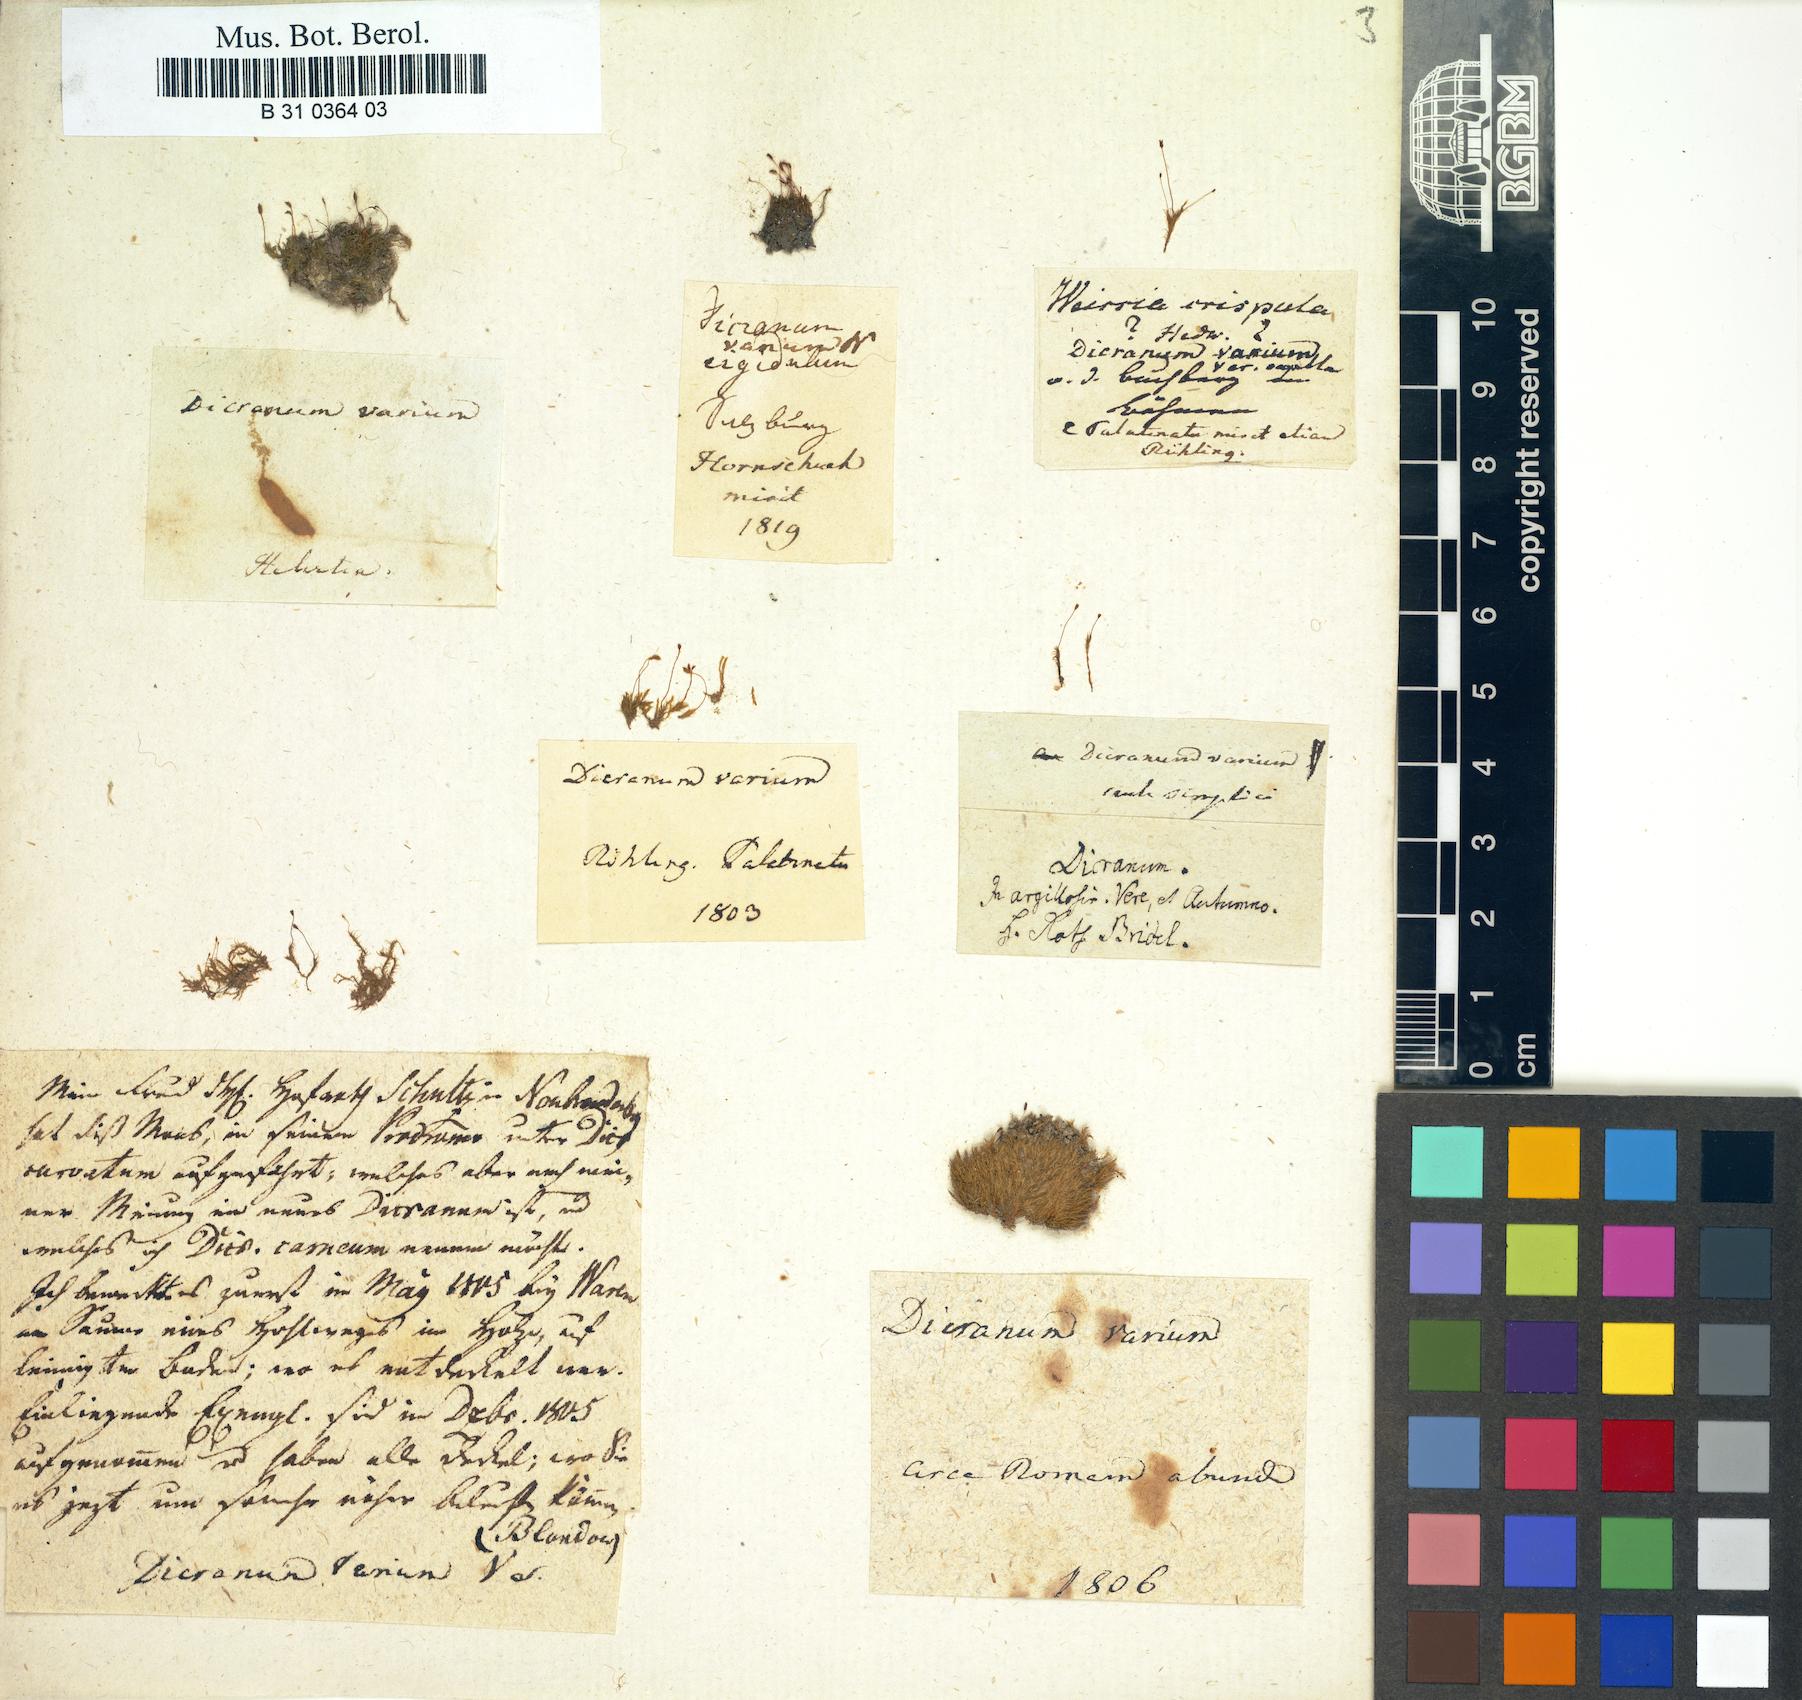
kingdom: Plantae
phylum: Bryophyta
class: Bryopsida
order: Dicranales
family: Dicranellaceae
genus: Dicranella
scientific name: Dicranella varia
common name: Variable forklet moss
